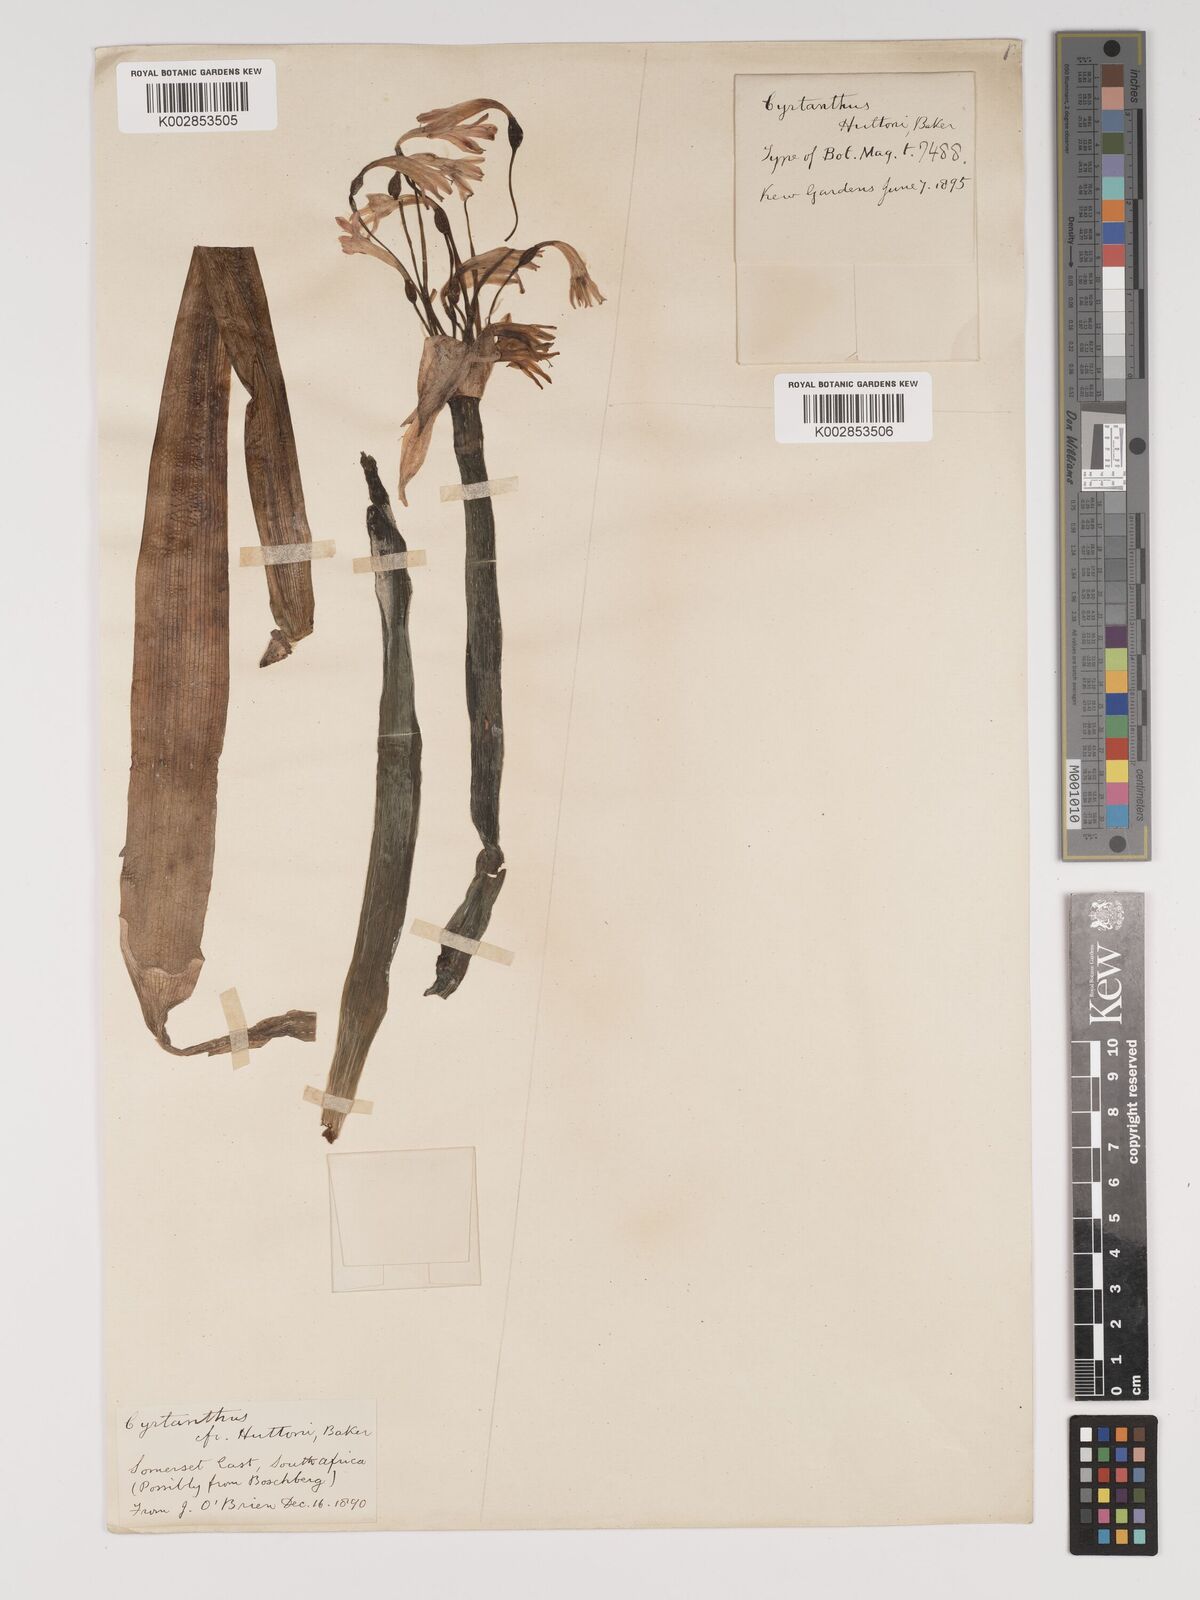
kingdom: Plantae
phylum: Tracheophyta
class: Liliopsida
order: Asparagales
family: Amaryllidaceae
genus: Cyrtanthus
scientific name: Cyrtanthus huttonii
